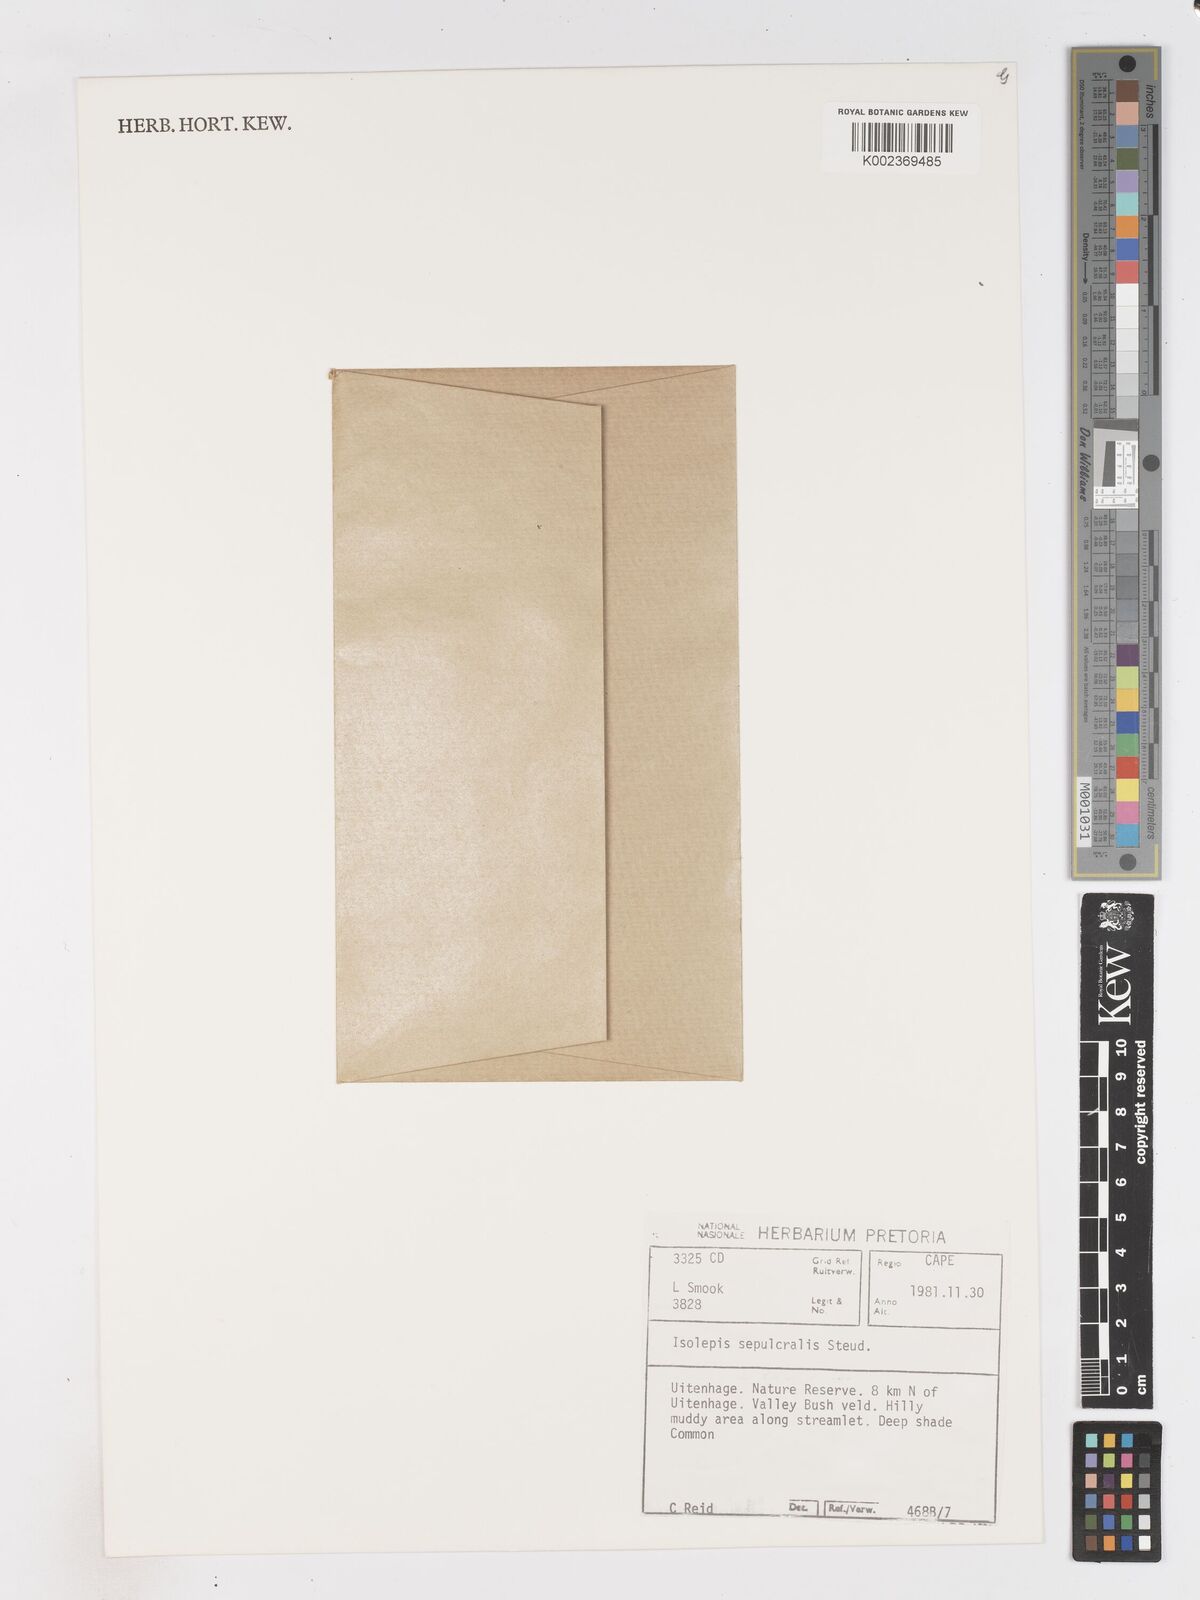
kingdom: Plantae
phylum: Tracheophyta
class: Liliopsida
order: Poales
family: Cyperaceae
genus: Isolepis
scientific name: Isolepis sepulcralis
